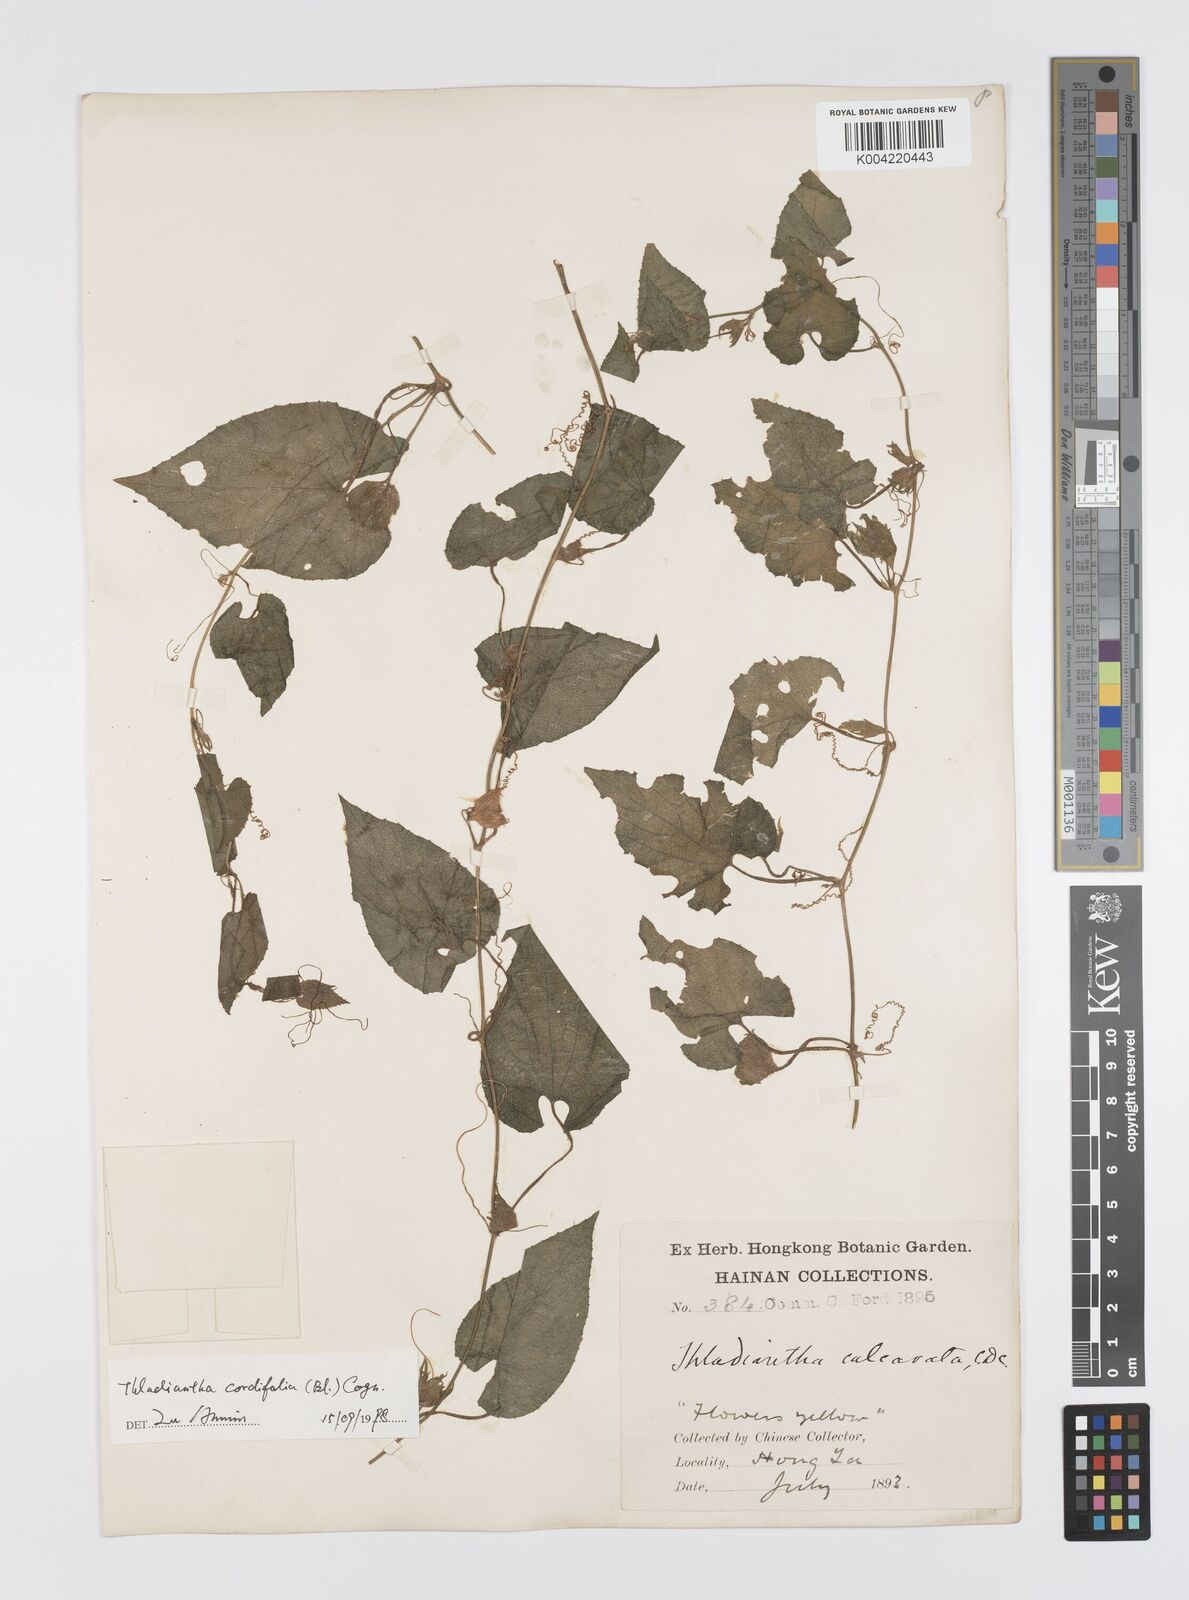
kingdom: Plantae
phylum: Tracheophyta
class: Magnoliopsida
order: Cucurbitales
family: Cucurbitaceae
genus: Thladiantha
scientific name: Thladiantha cordifolia
